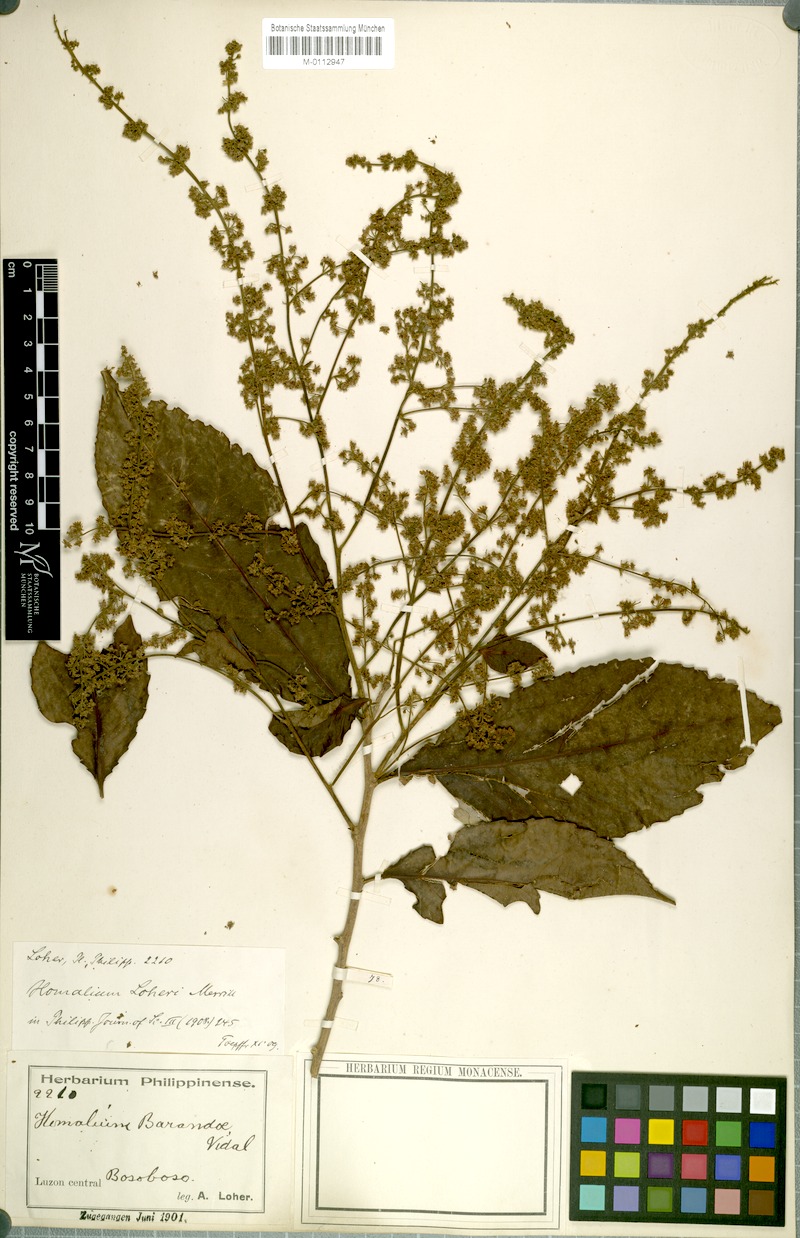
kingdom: Plantae
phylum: Tracheophyta
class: Magnoliopsida
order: Malpighiales
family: Salicaceae
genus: Homalium
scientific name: Homalium barandae
